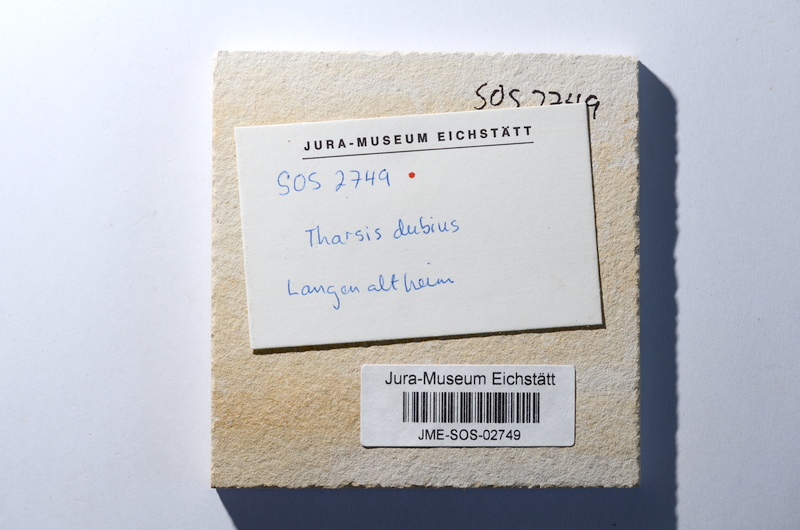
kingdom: Animalia
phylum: Chordata
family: Ascalaboidae
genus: Tharsis
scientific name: Tharsis dubius
